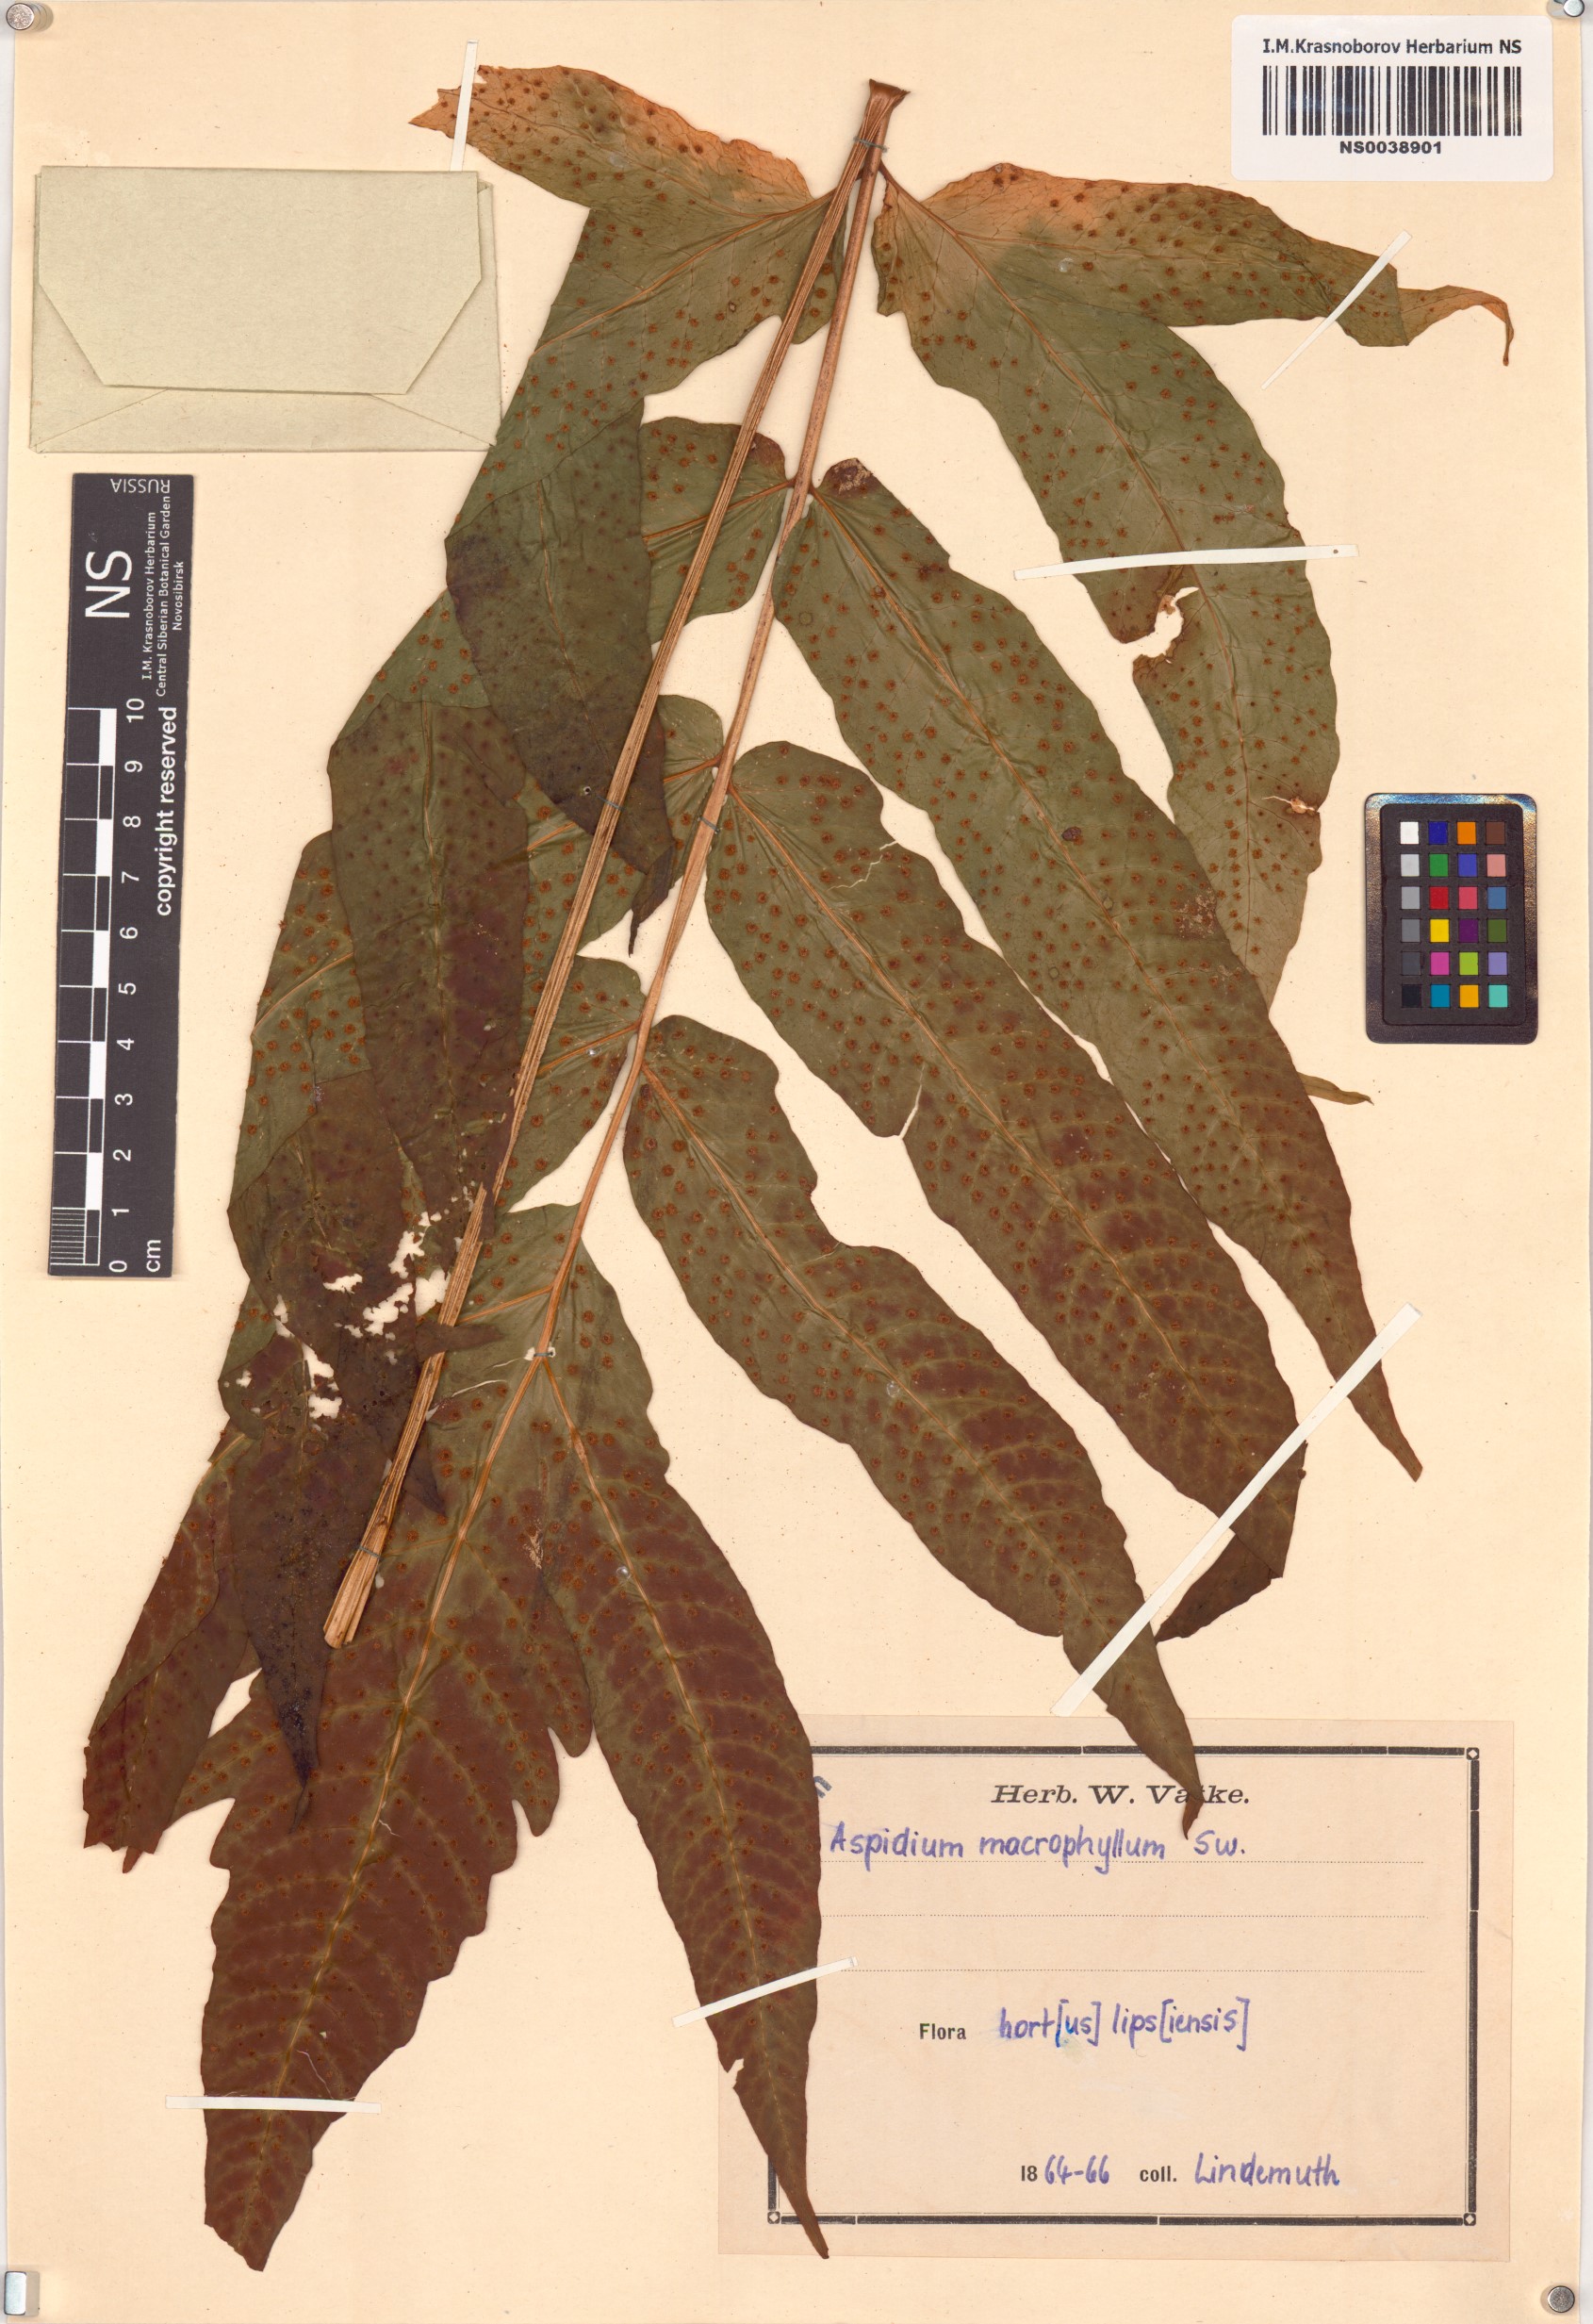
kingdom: Plantae
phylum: Tracheophyta
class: Polypodiopsida
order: Polypodiales
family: Dryopteridaceae
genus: Polystichum
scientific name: Polystichum mucronifolium
